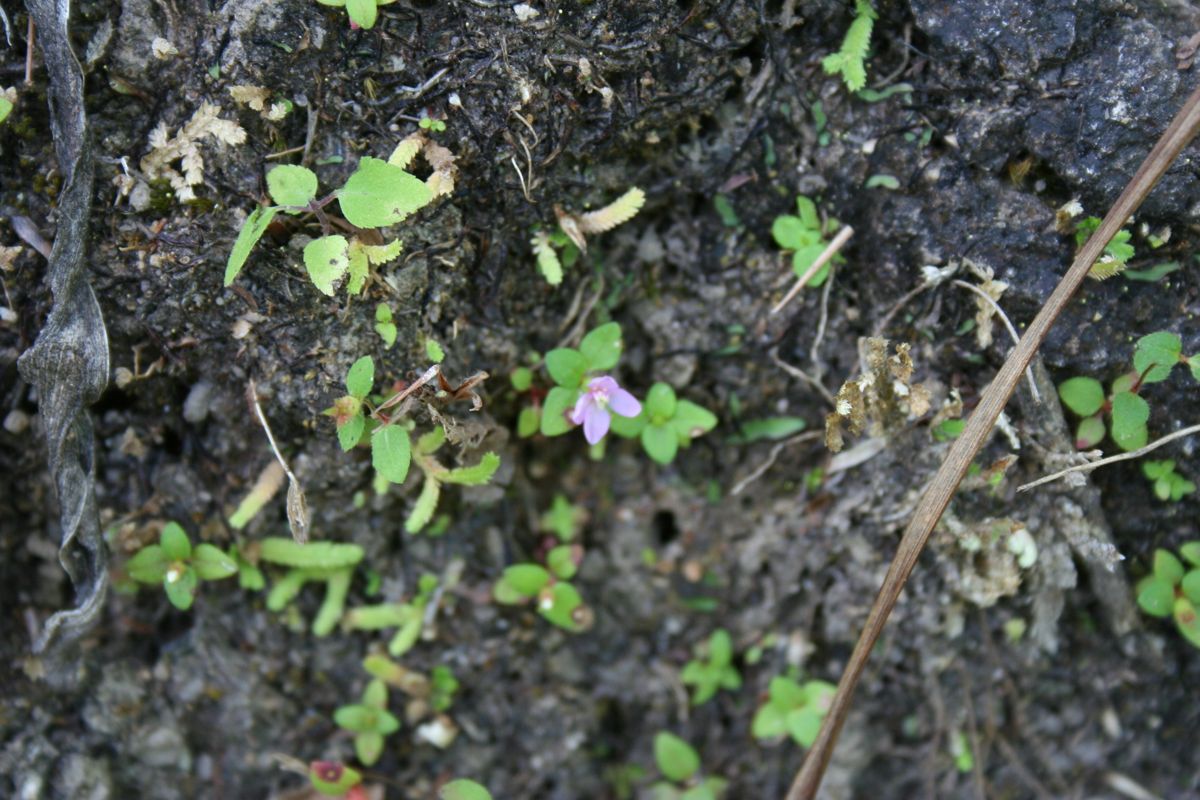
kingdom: Plantae
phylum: Tracheophyta
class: Magnoliopsida
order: Myrtales
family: Melastomataceae
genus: Schwackaea
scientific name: Schwackaea cupheoides
